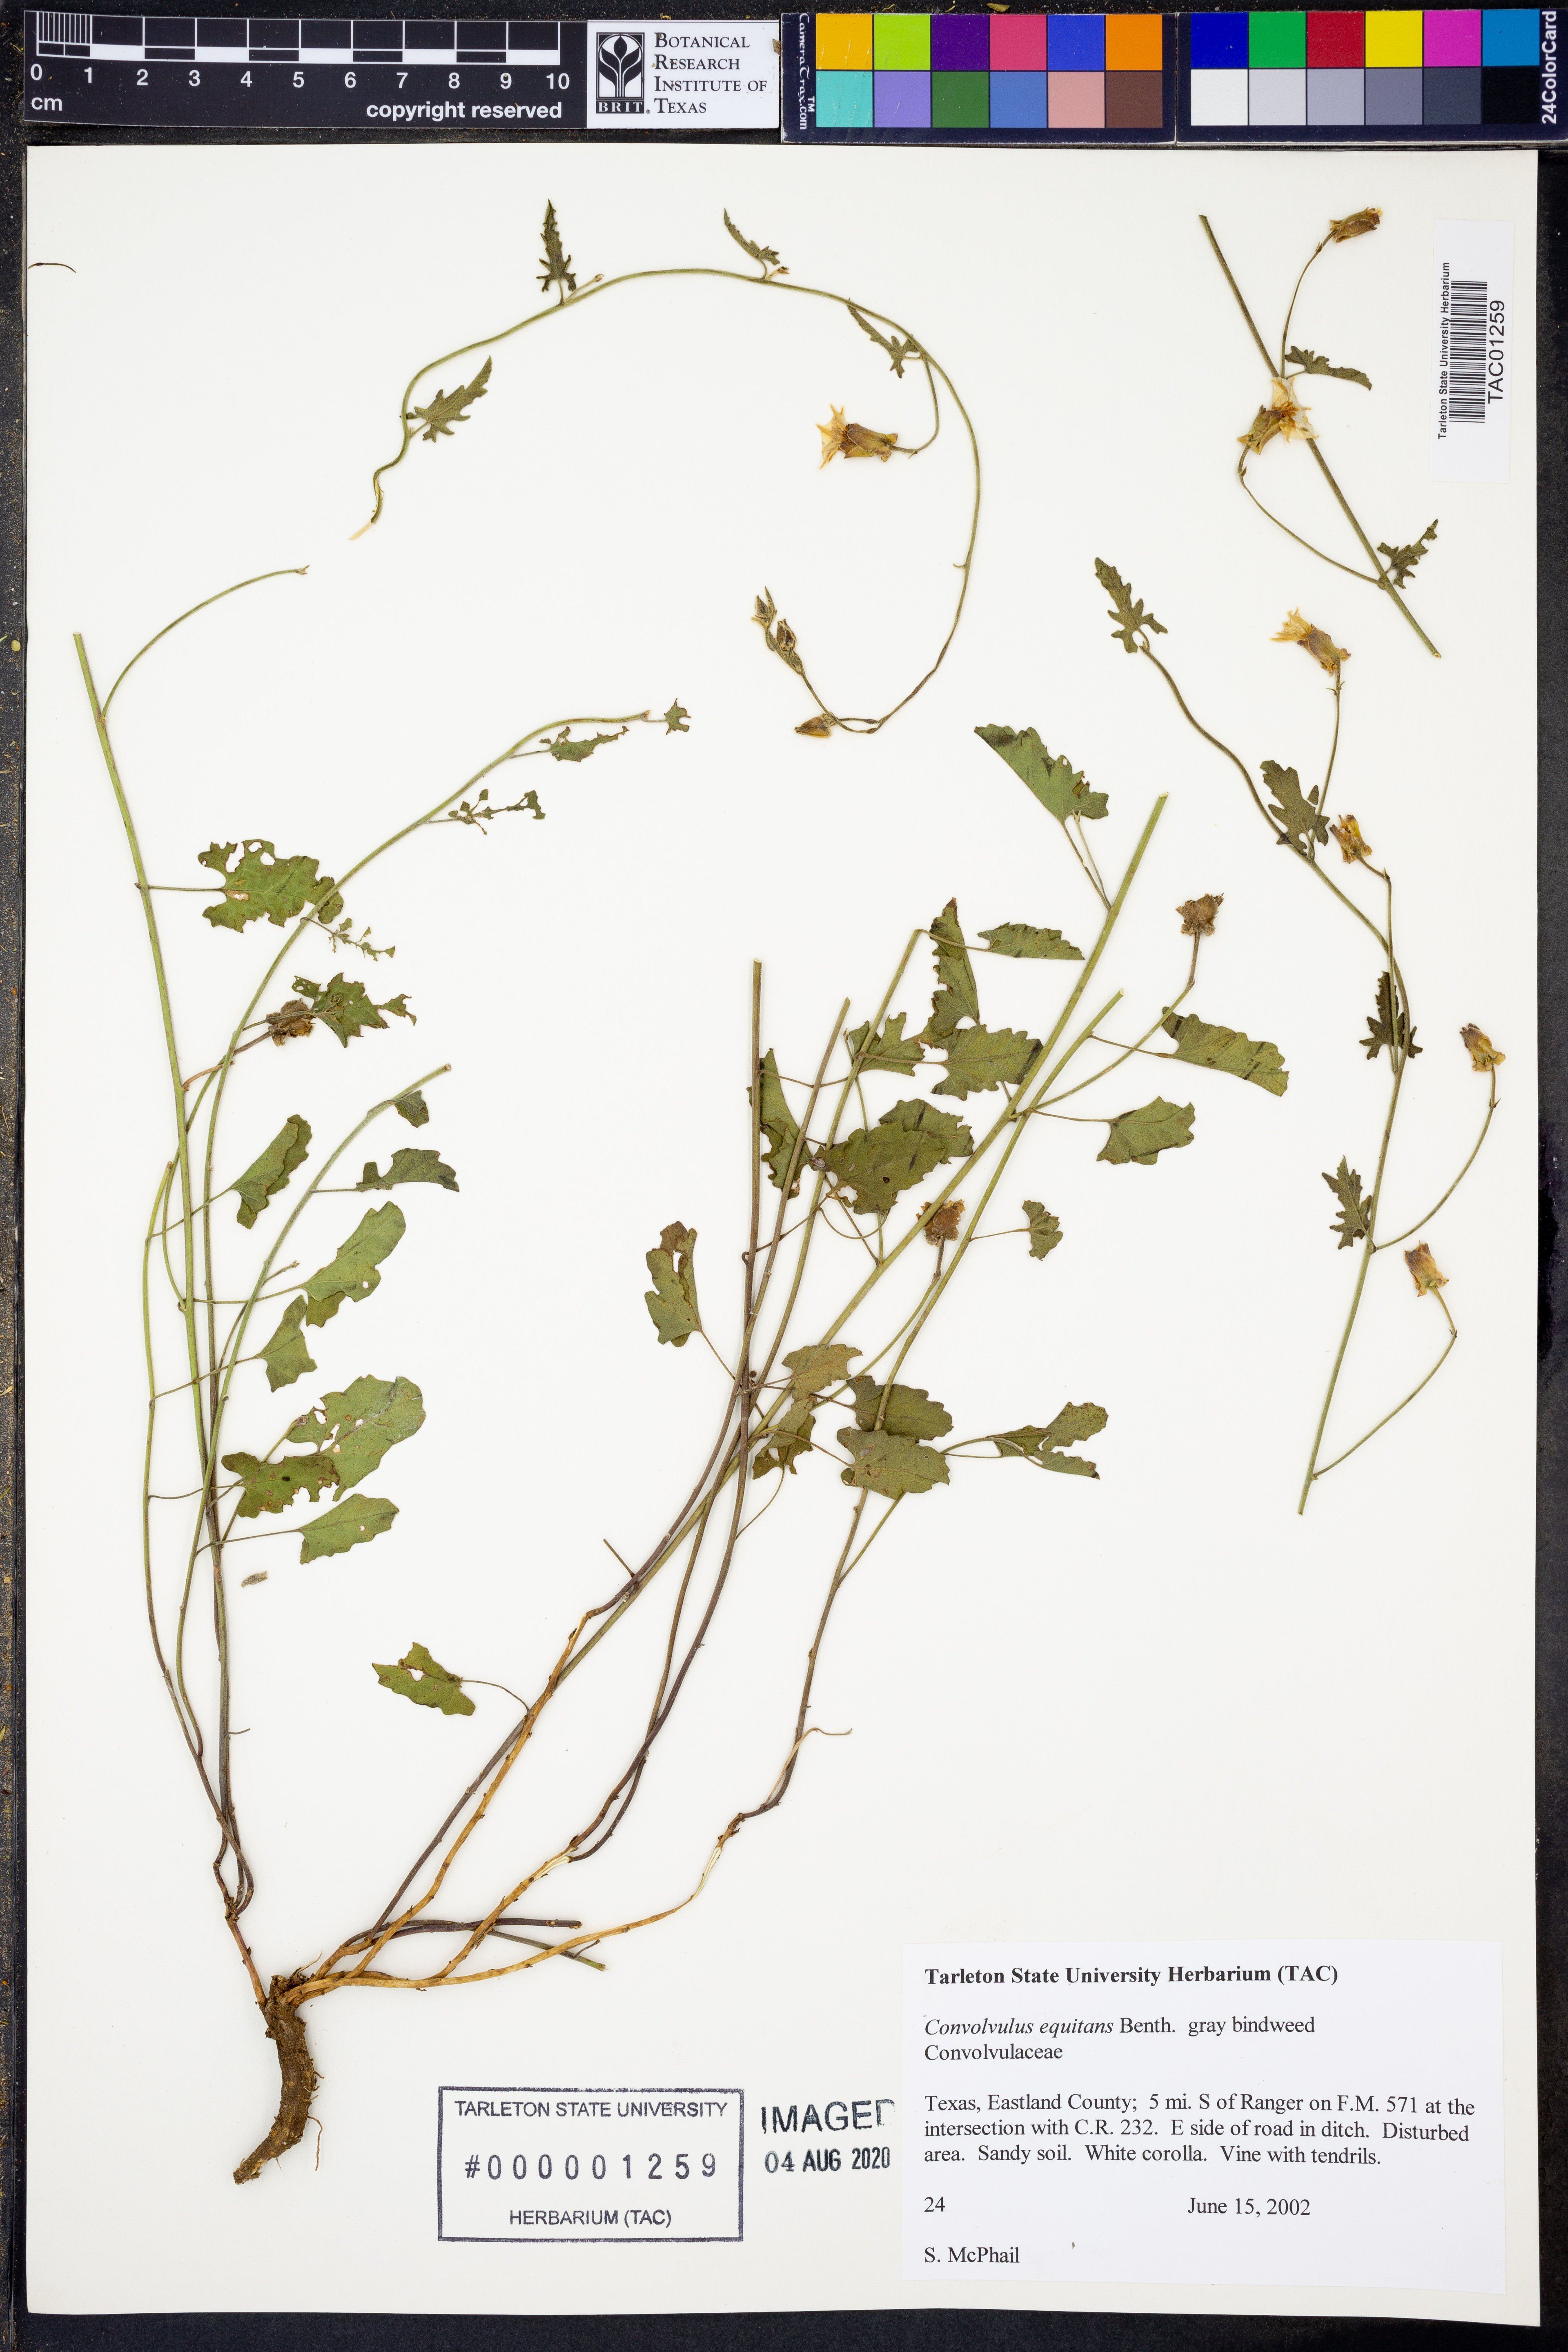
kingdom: Plantae
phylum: Tracheophyta
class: Magnoliopsida
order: Solanales
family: Convolvulaceae
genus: Convolvulus
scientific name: Convolvulus equitans
